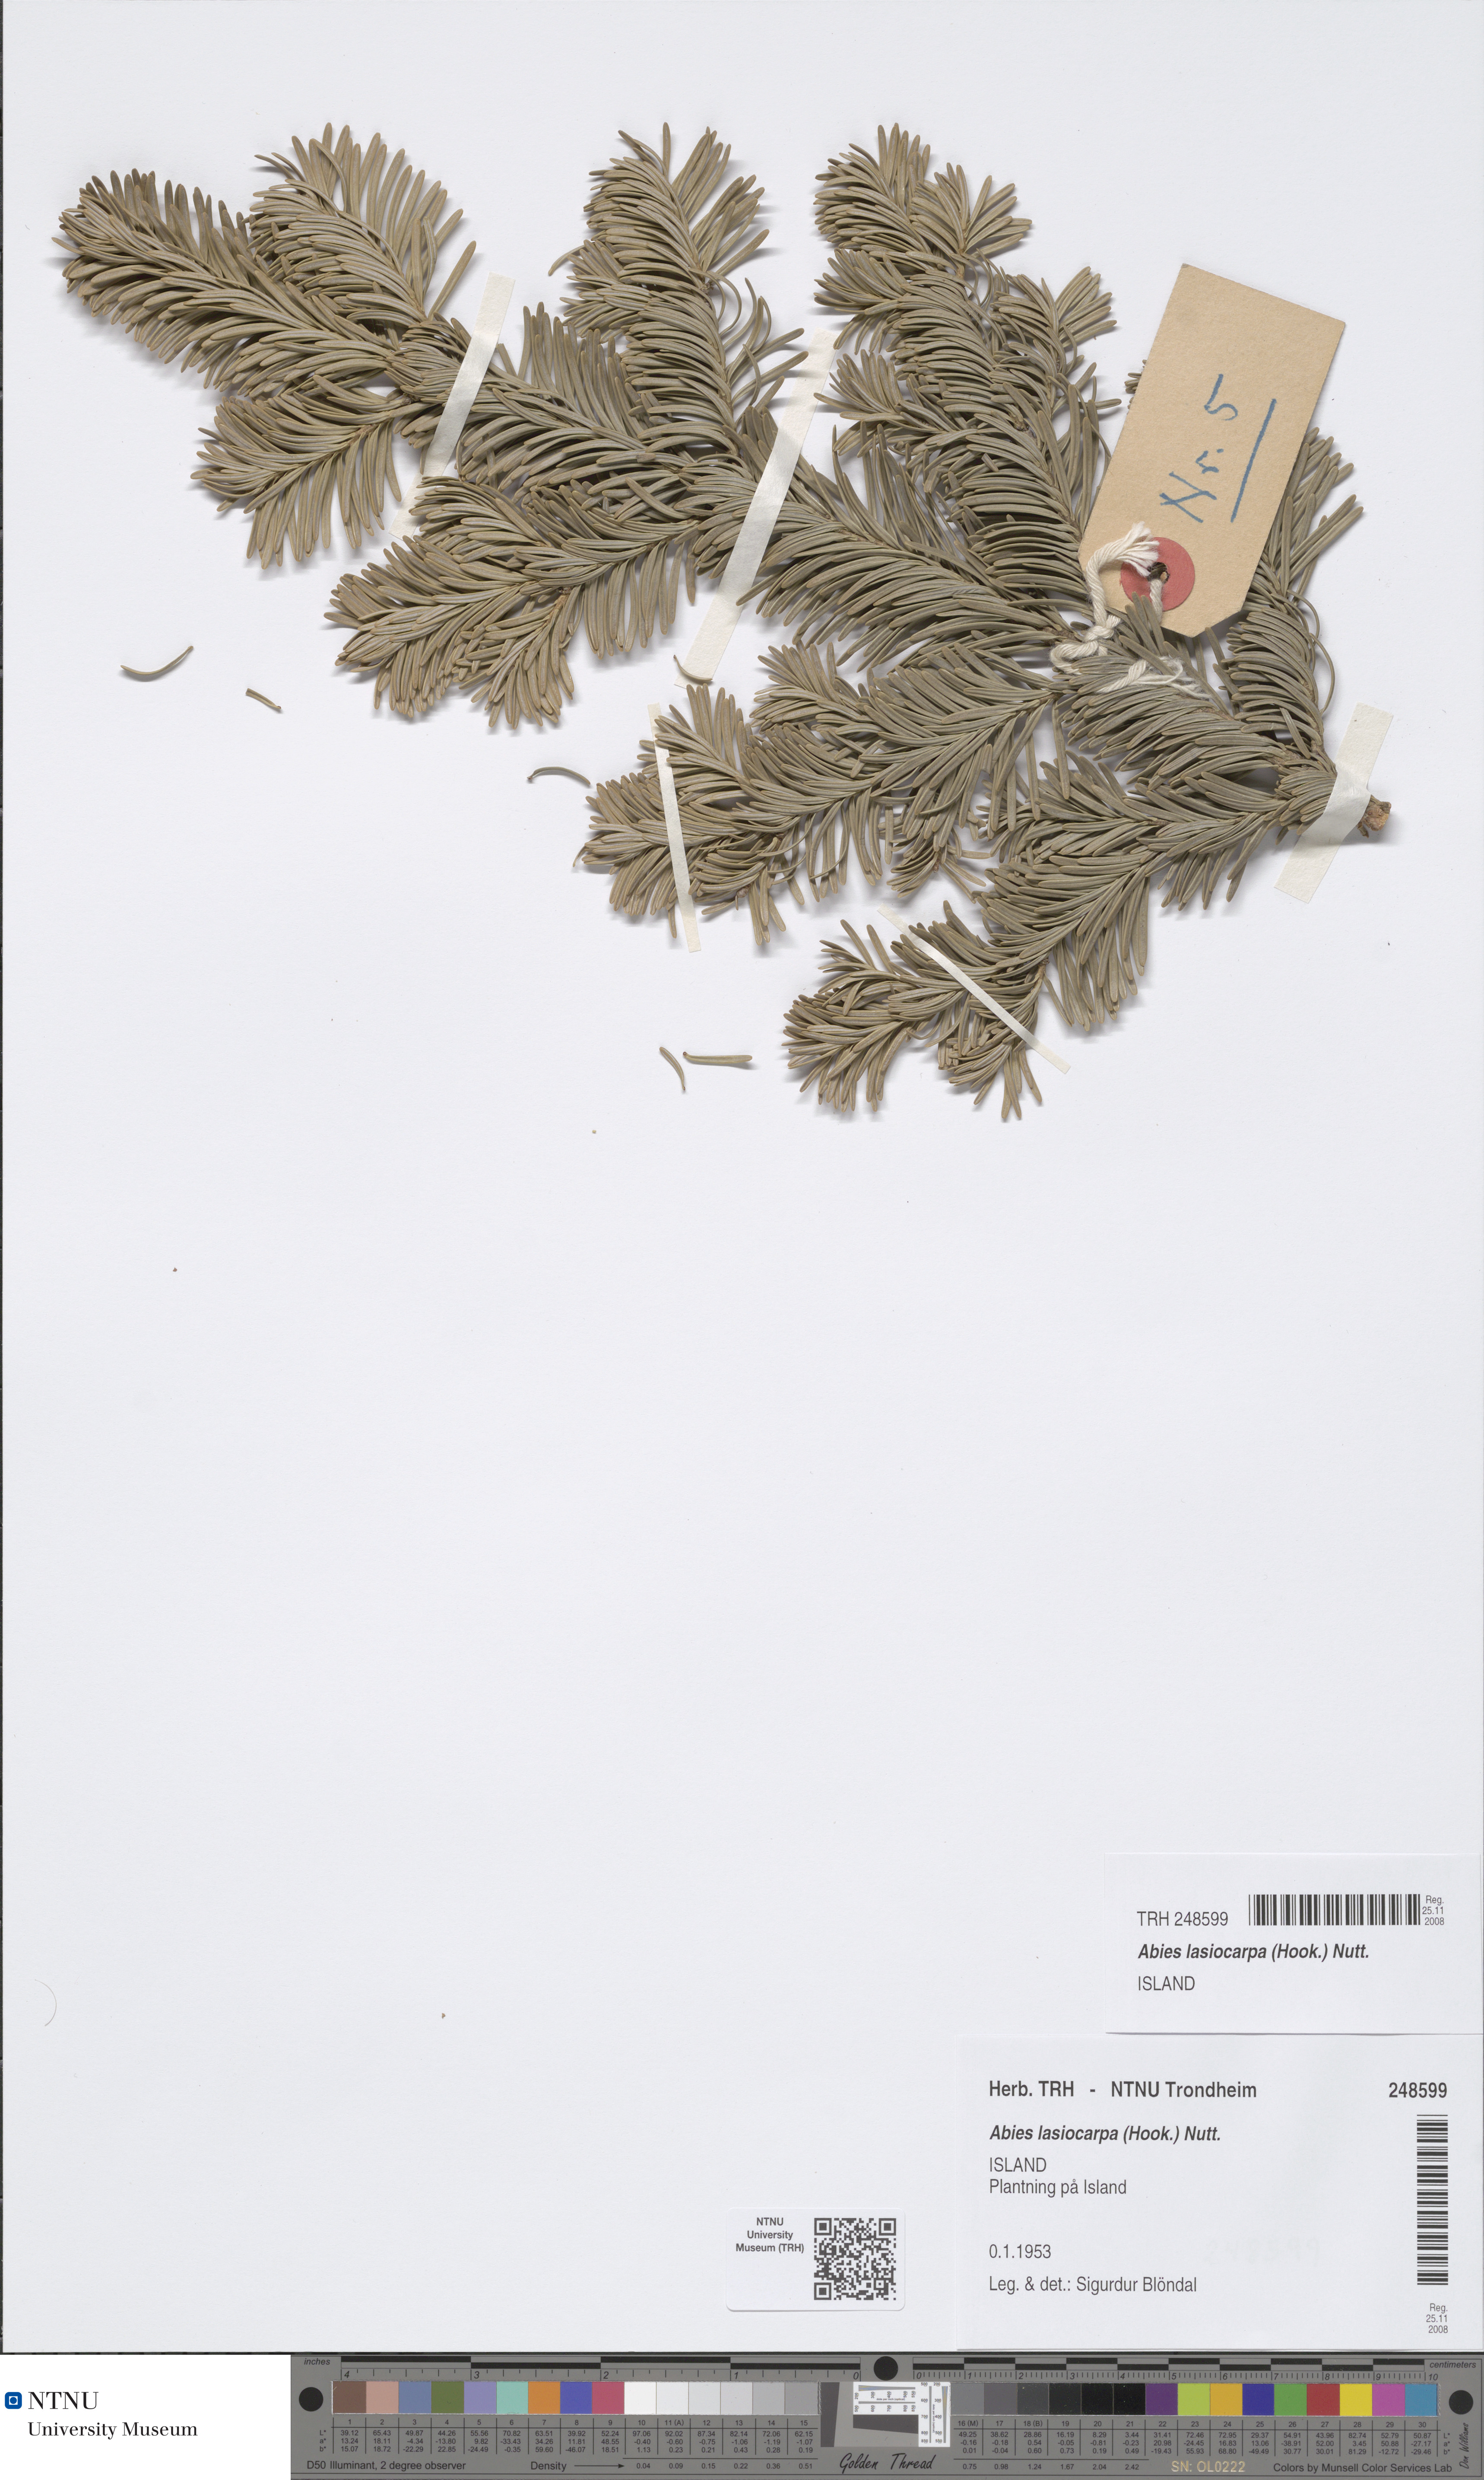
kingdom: Plantae
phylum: Tracheophyta
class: Pinopsida
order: Pinales
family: Pinaceae
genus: Abies
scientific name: Abies lasiocarpa
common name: Subalpine fir
